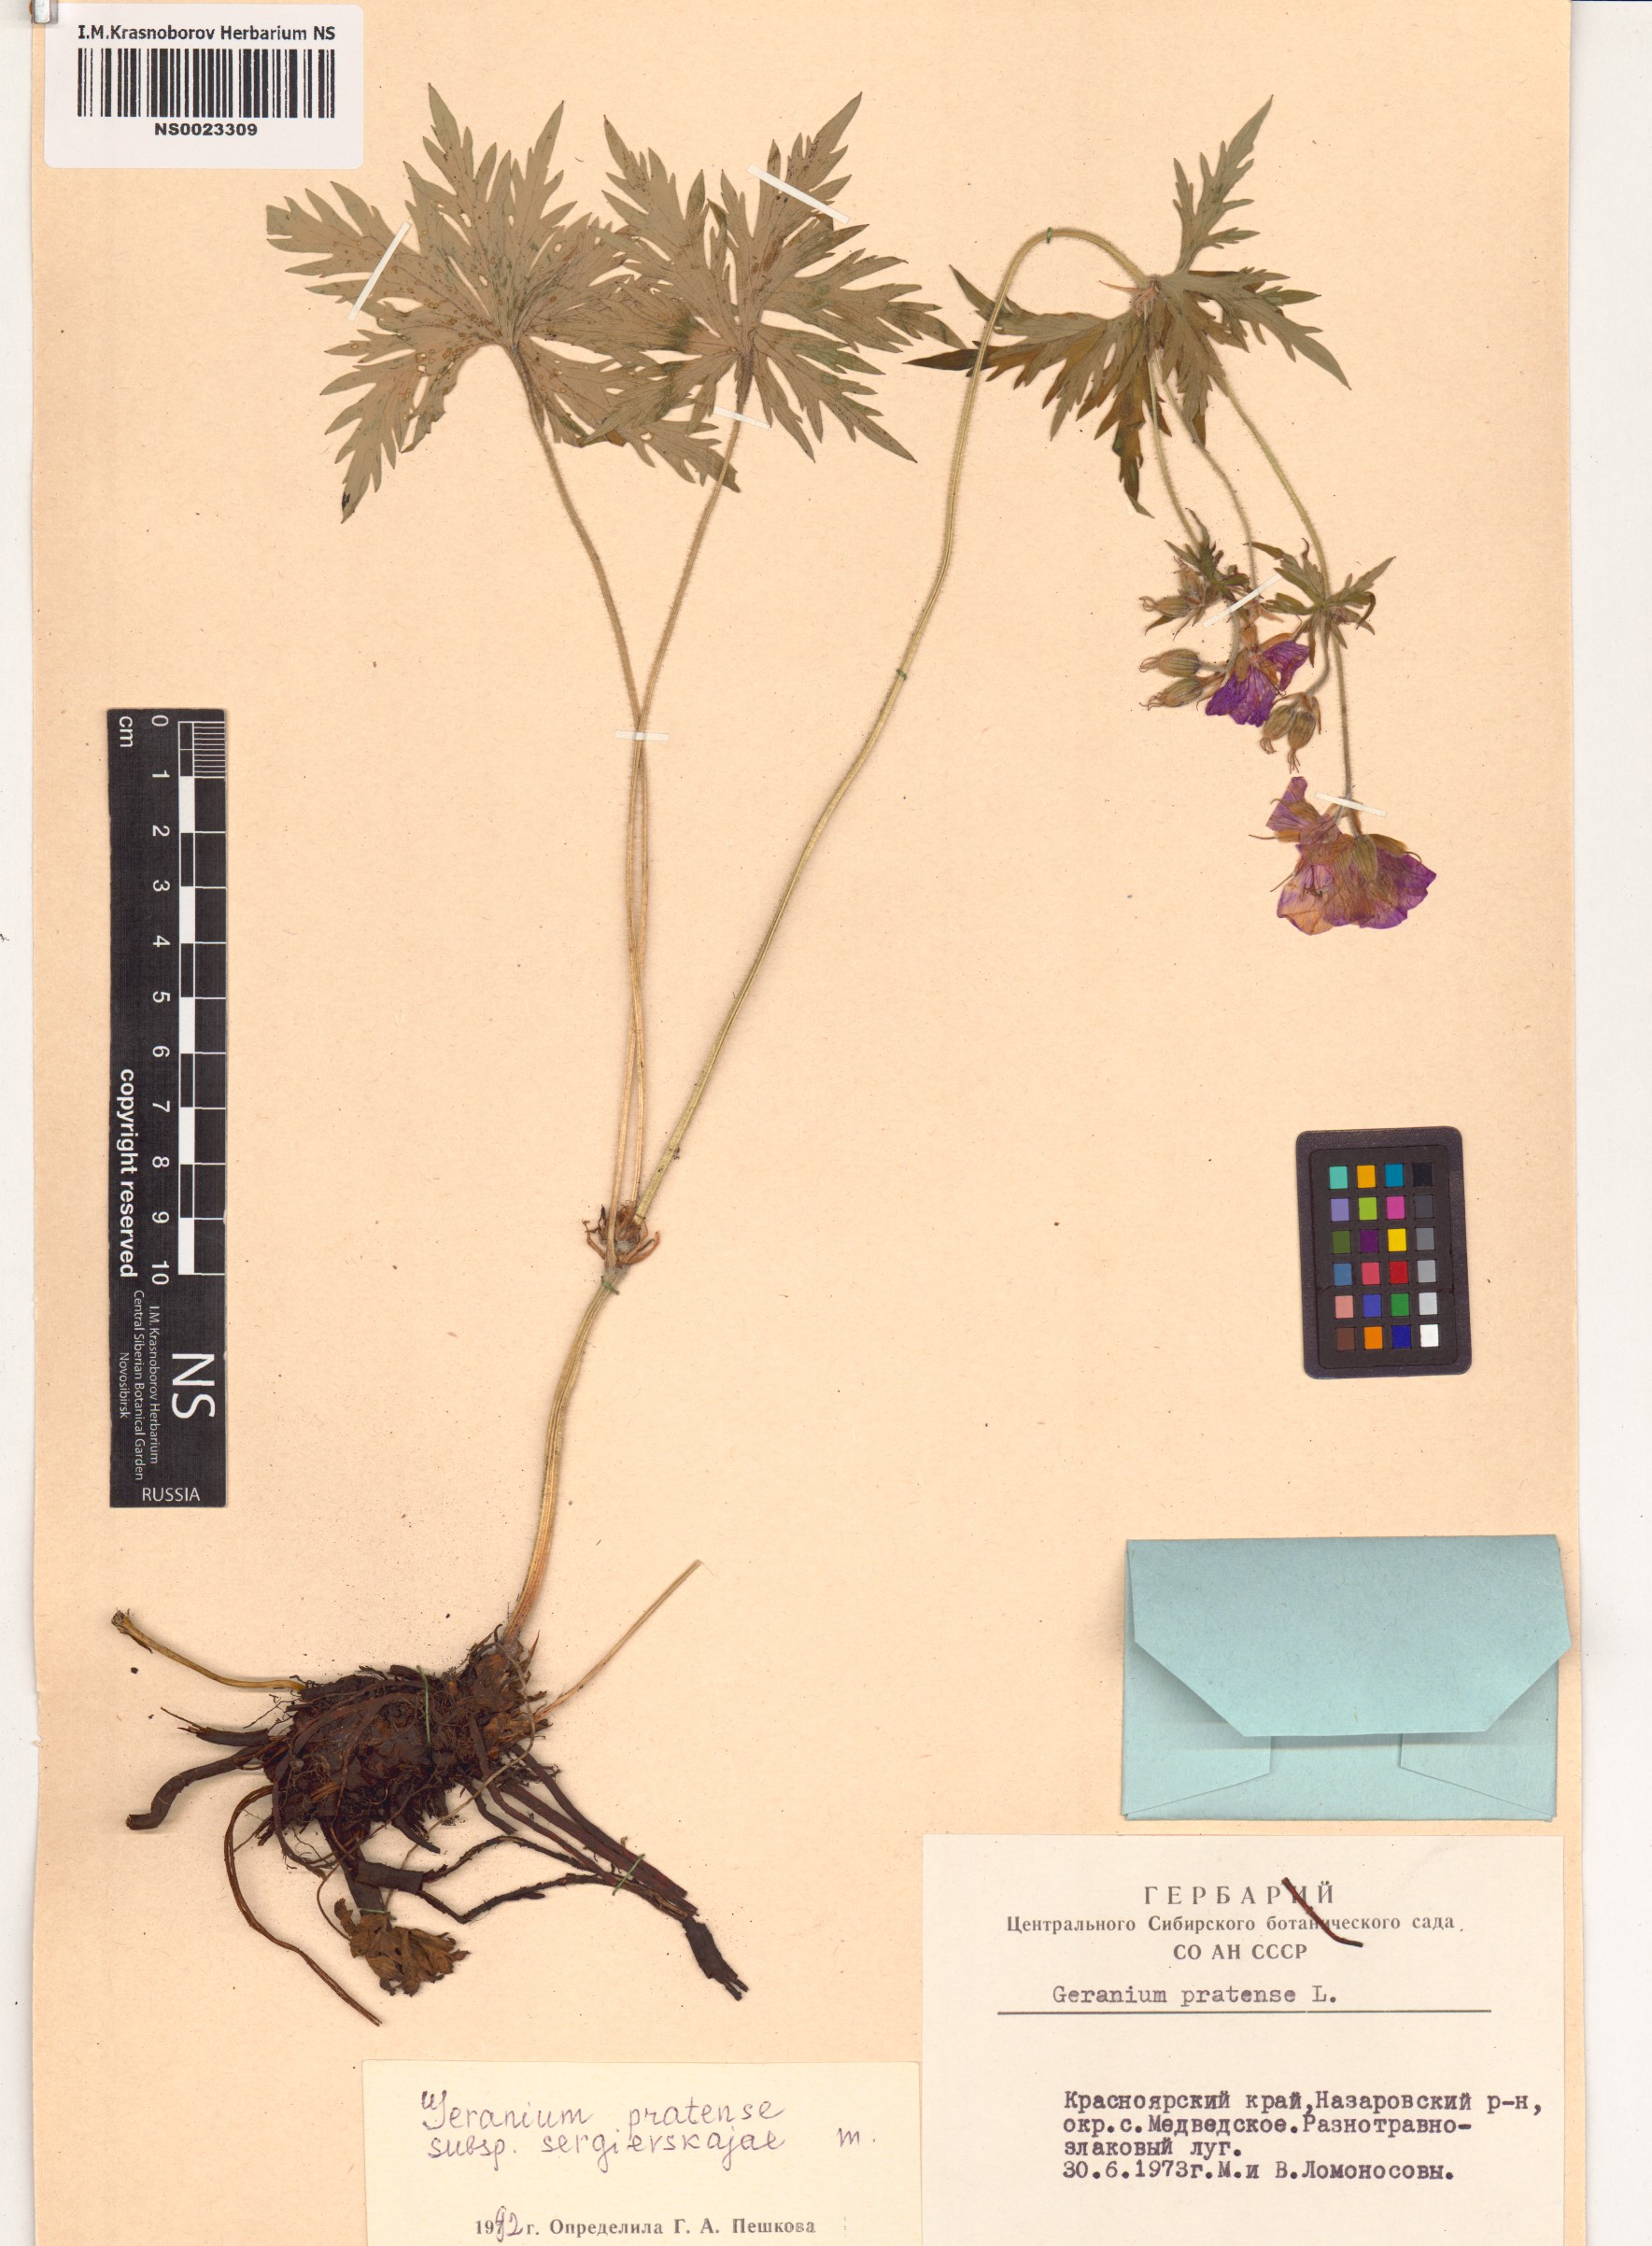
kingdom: Plantae
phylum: Tracheophyta
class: Magnoliopsida
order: Geraniales
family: Geraniaceae
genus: Geranium
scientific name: Geranium pratense
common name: Meadow crane's-bill
